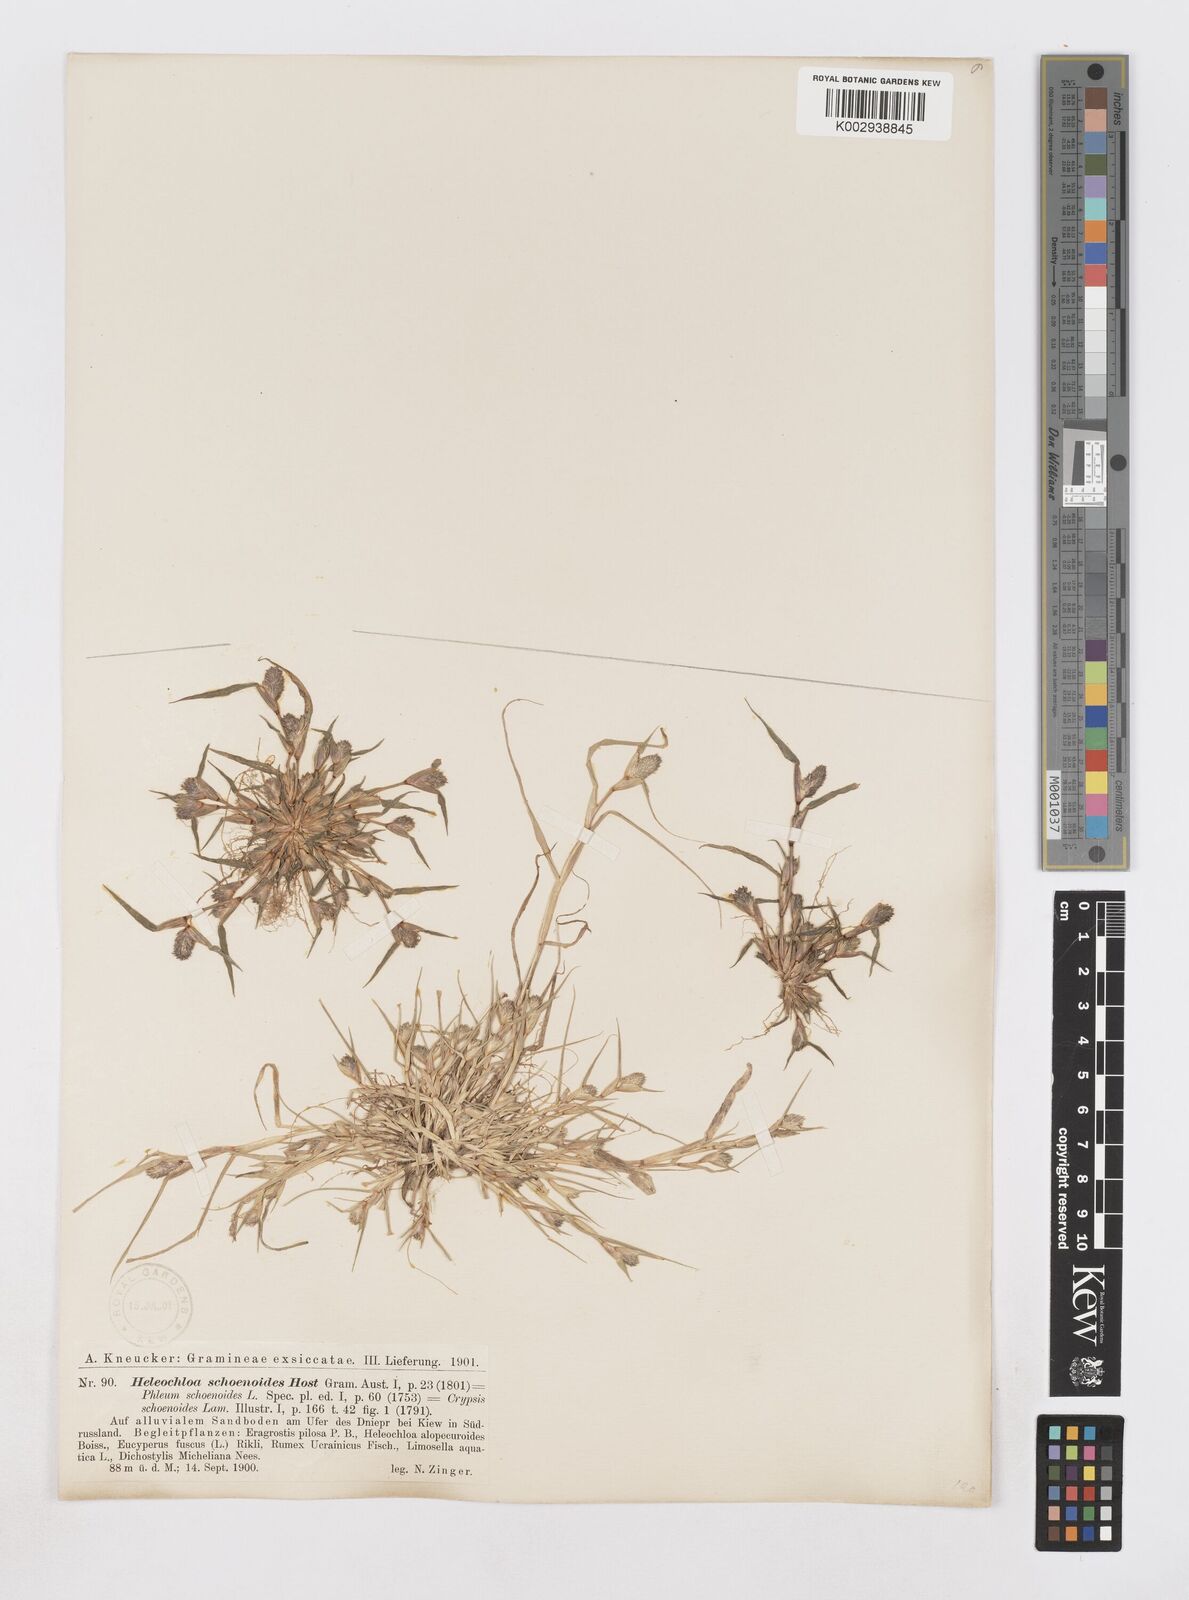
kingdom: Plantae
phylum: Tracheophyta
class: Liliopsida
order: Poales
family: Poaceae
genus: Sporobolus
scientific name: Sporobolus schoenoides
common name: Rush-like timothy
